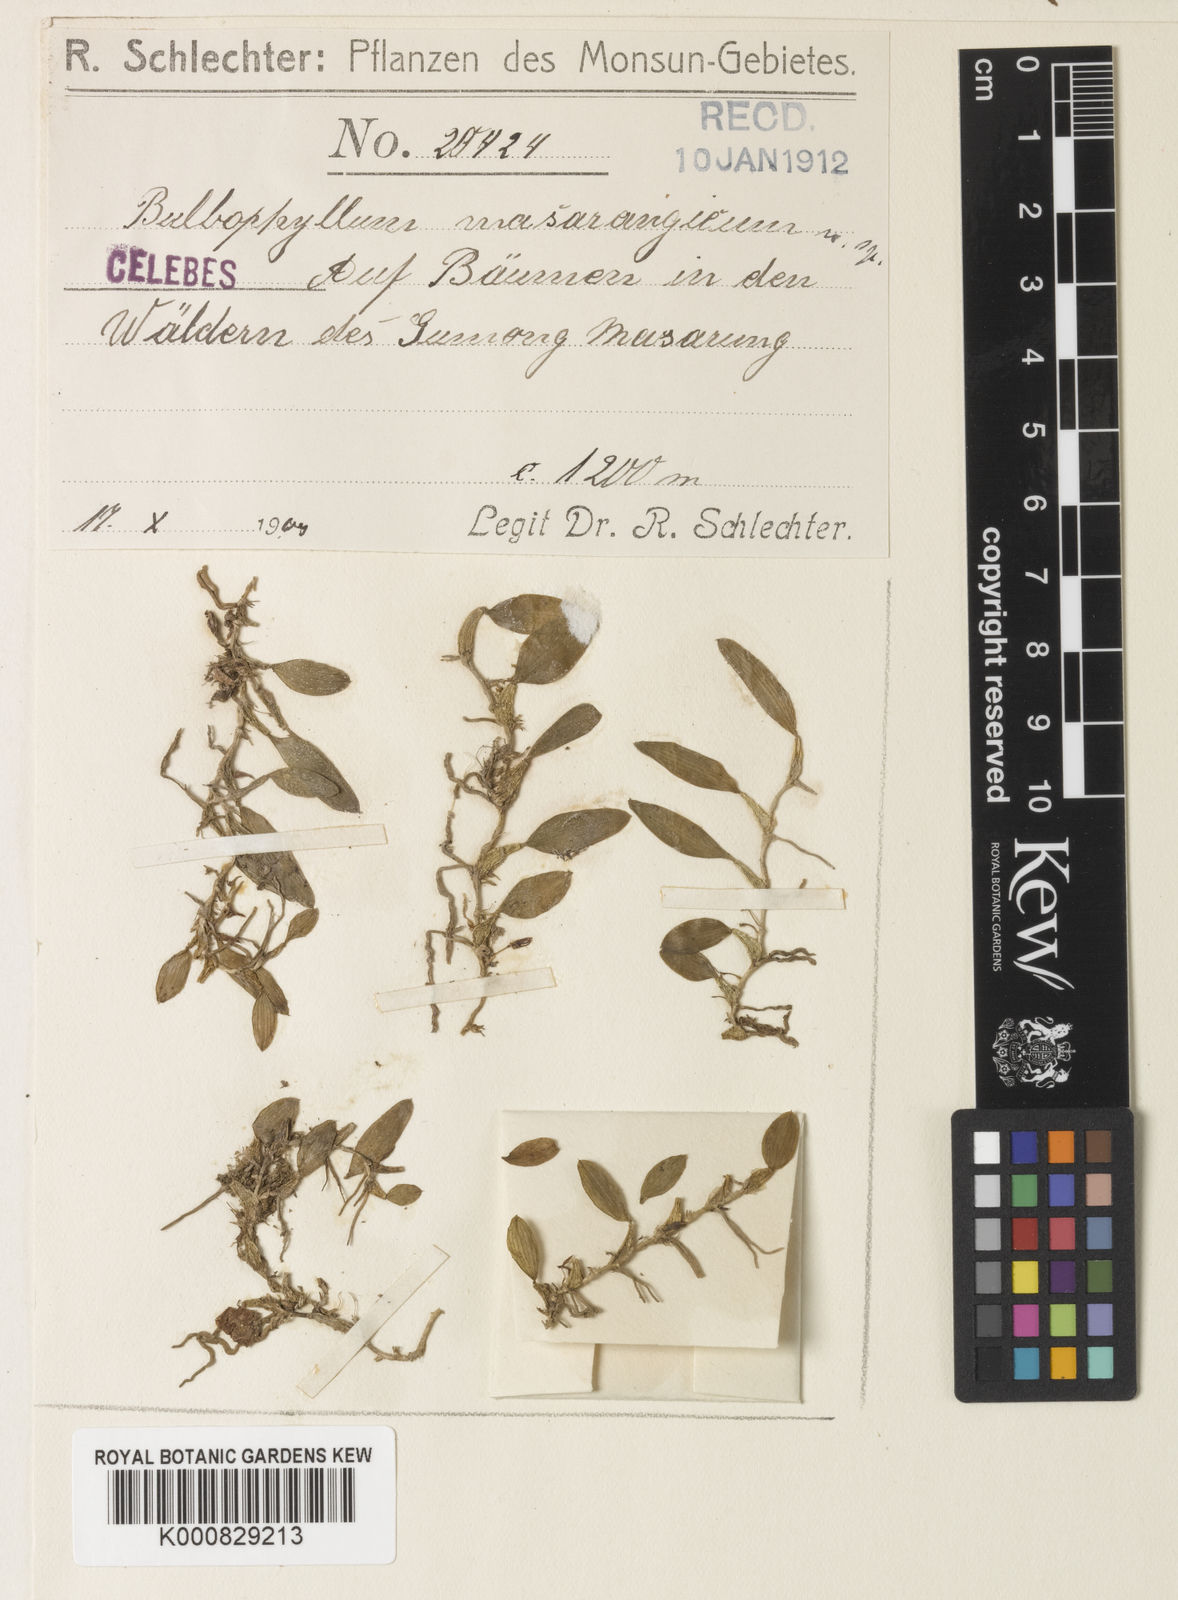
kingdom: Plantae
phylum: Tracheophyta
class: Liliopsida
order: Asparagales
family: Orchidaceae
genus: Bulbophyllum
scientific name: Bulbophyllum masarangicum
